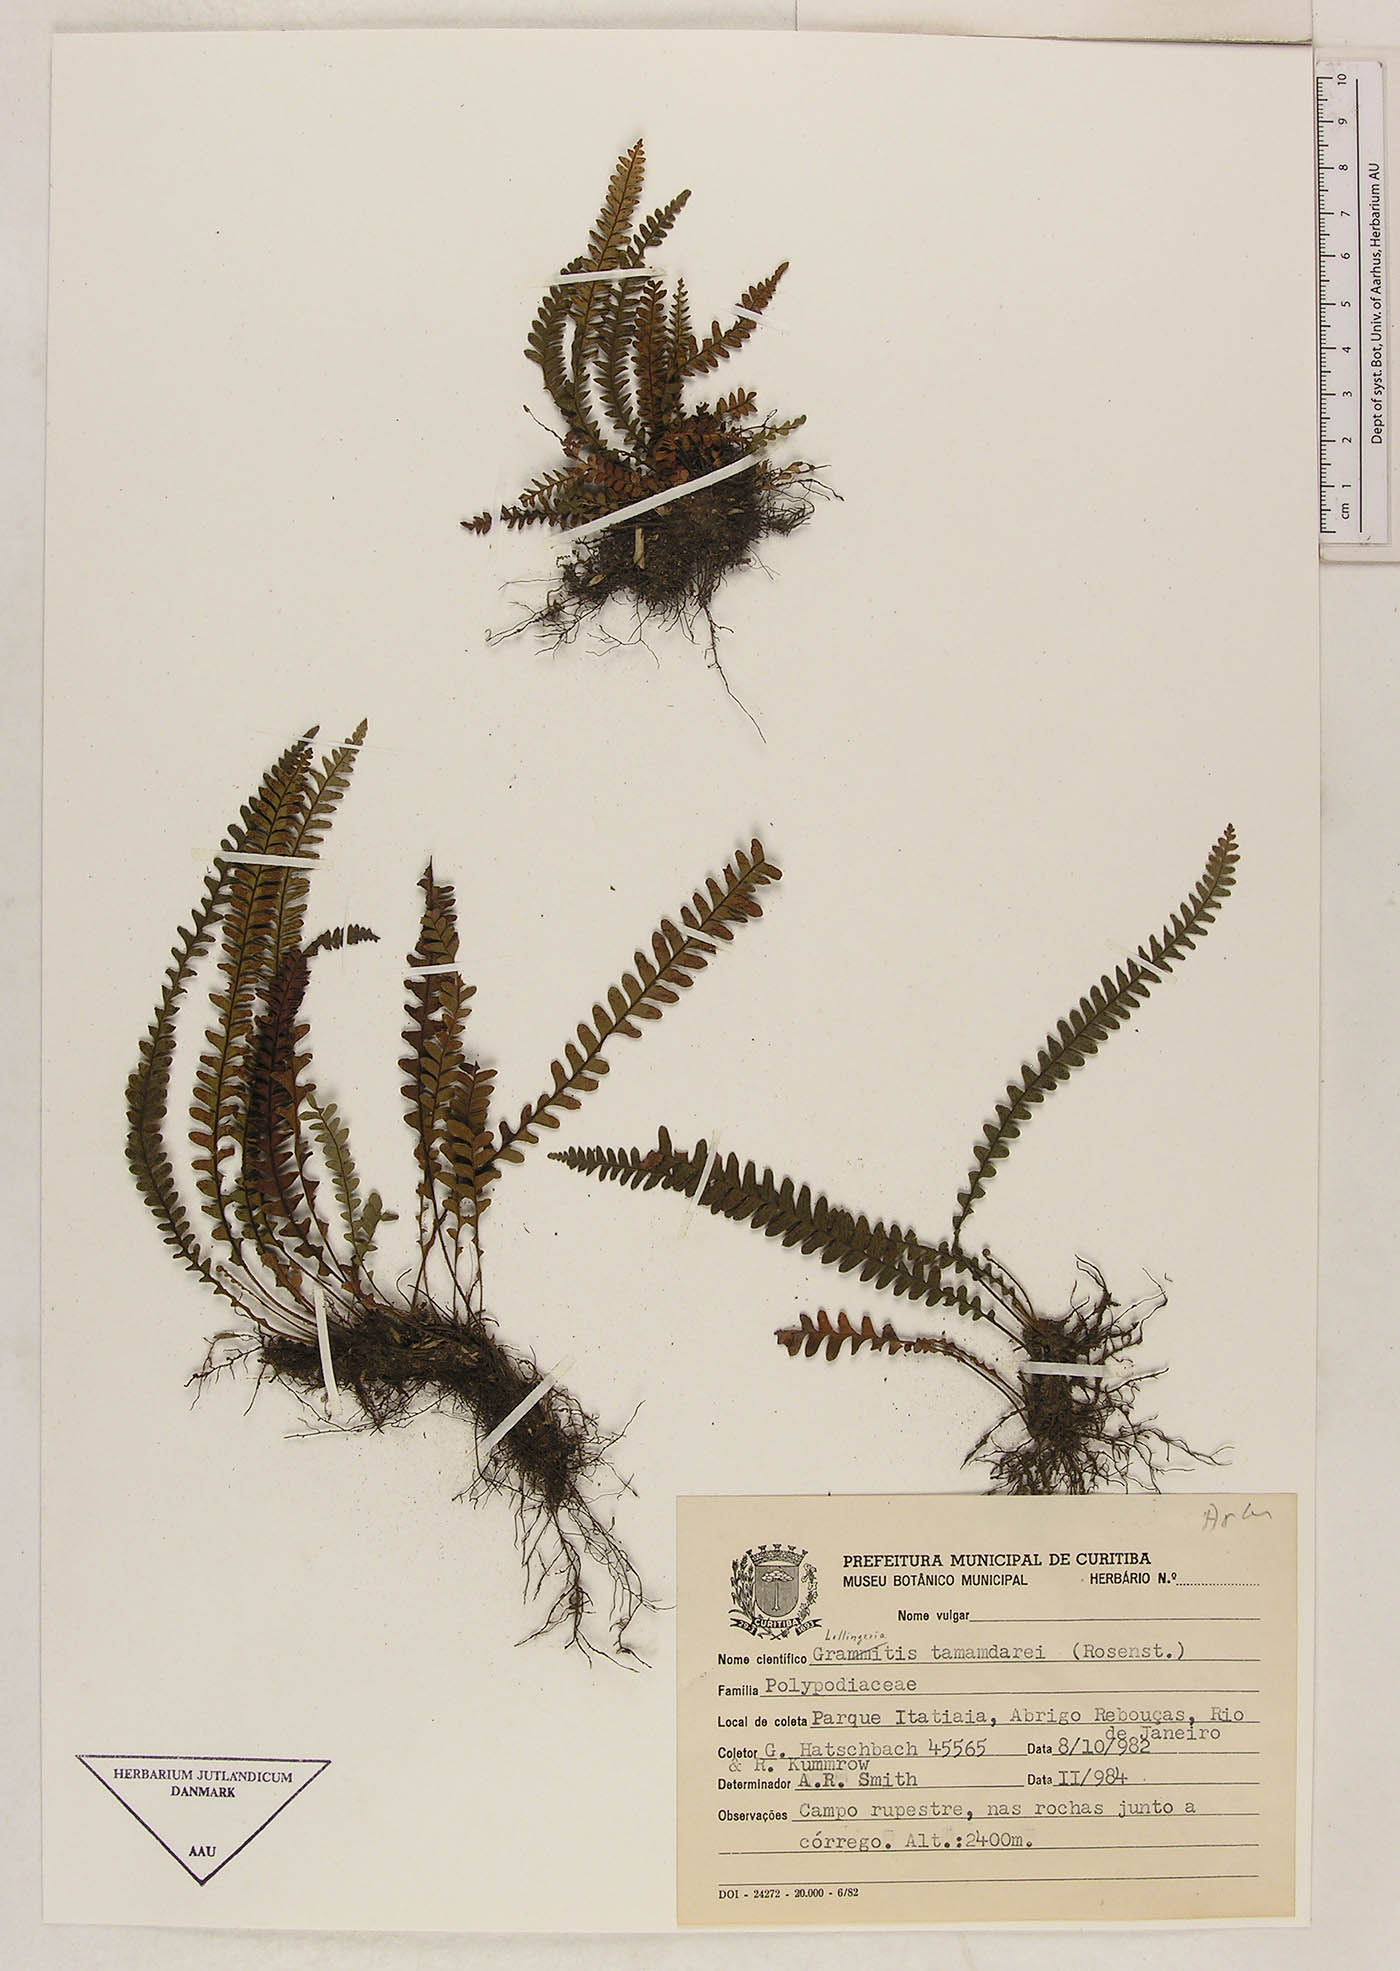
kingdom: Plantae
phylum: Tracheophyta
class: Polypodiopsida
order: Polypodiales
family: Polypodiaceae
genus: Lellingeria
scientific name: Lellingeria tamandarei
